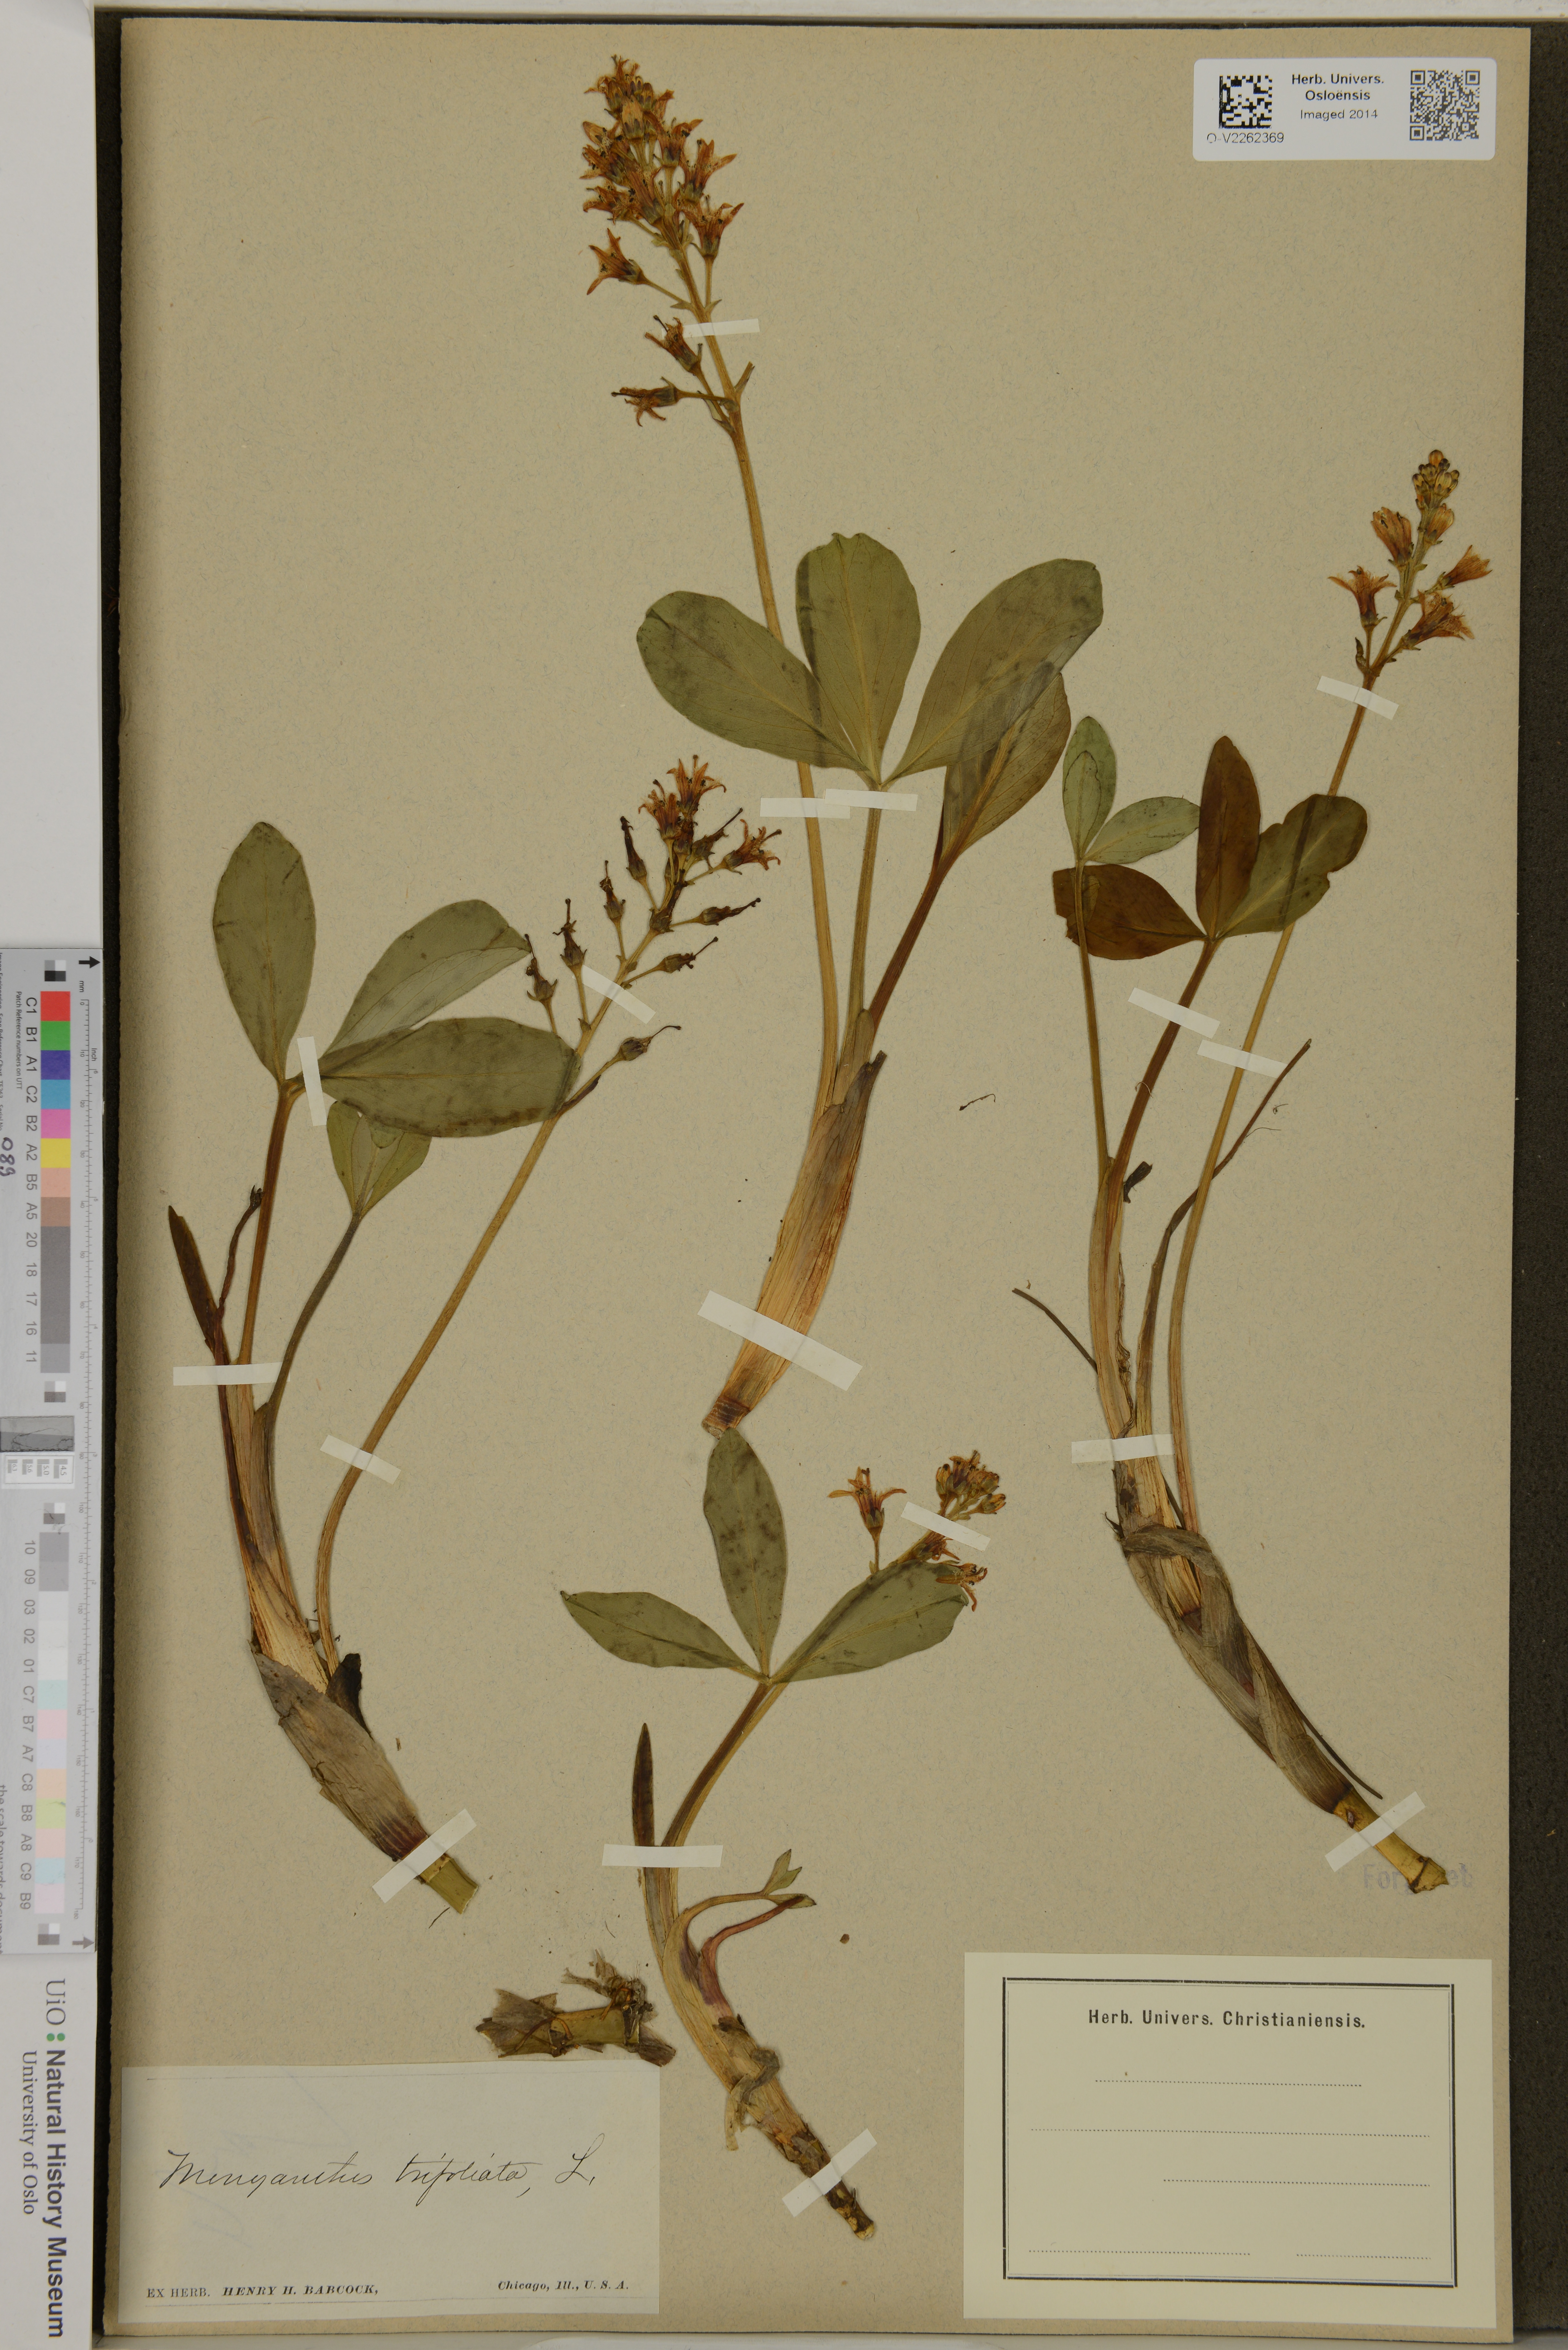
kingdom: Plantae
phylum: Tracheophyta
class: Magnoliopsida
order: Asterales
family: Menyanthaceae
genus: Menyanthes
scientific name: Menyanthes trifoliata
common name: Bogbean
